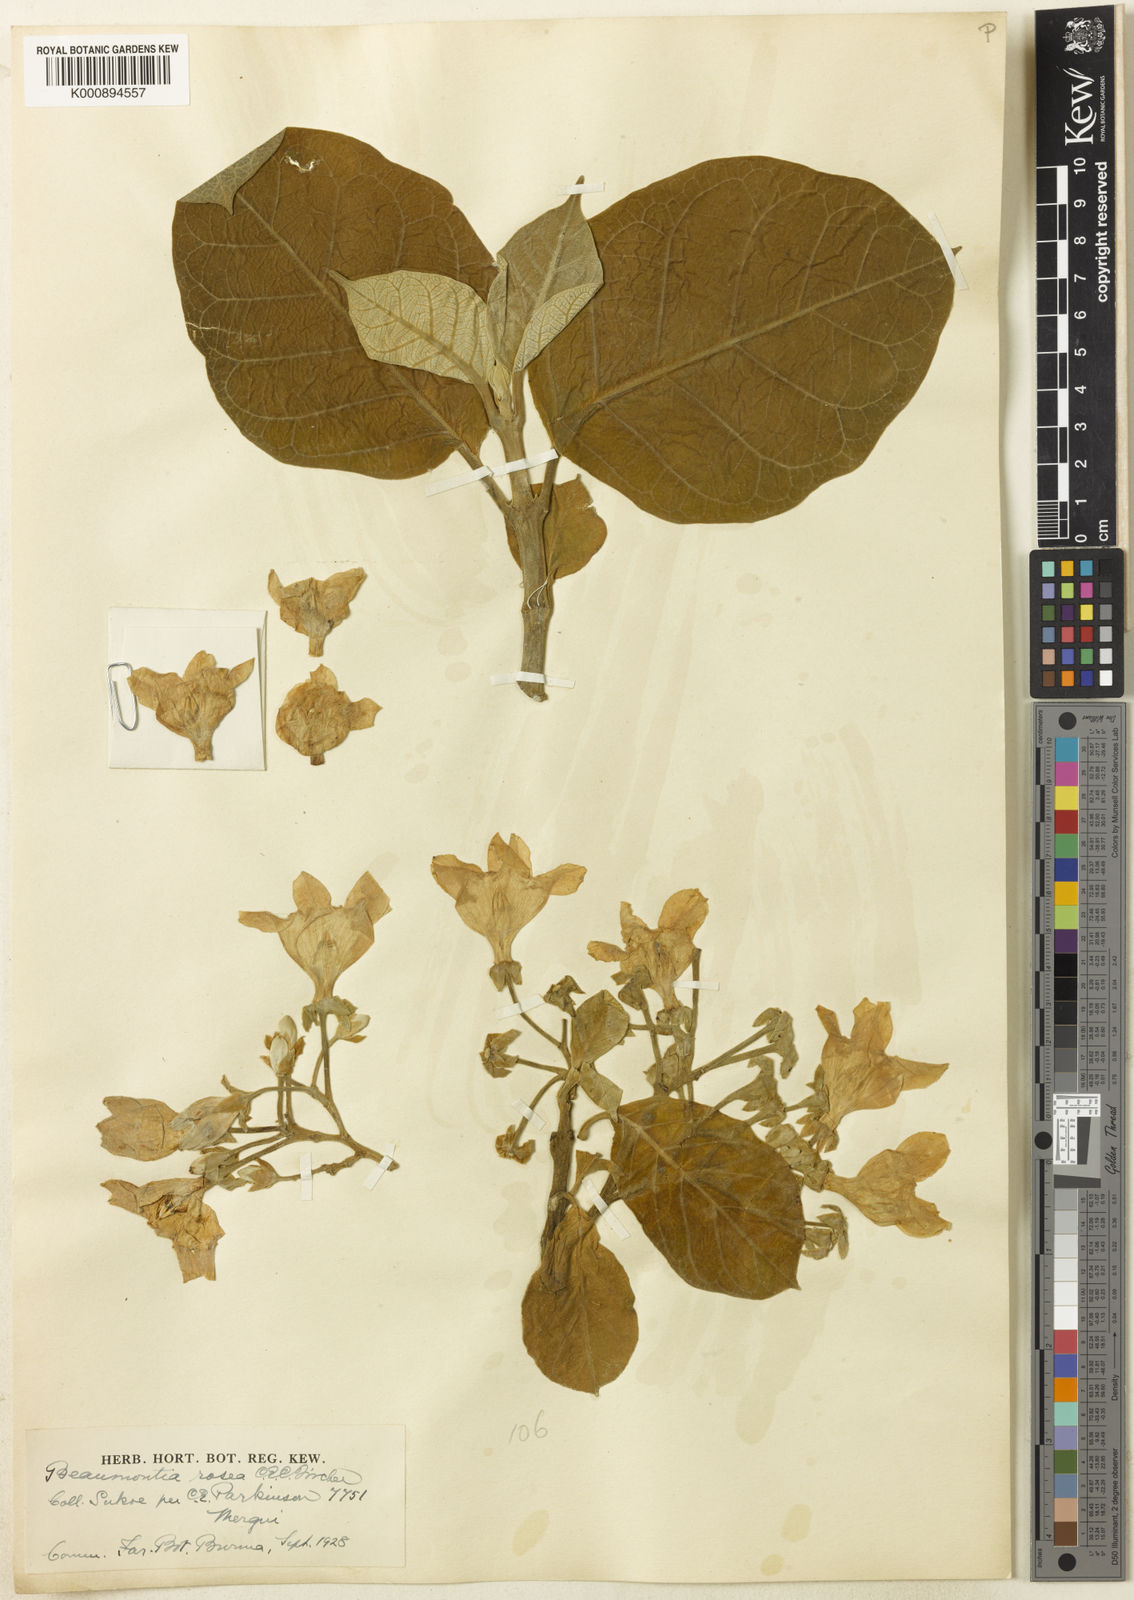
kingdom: Plantae
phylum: Tracheophyta
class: Magnoliopsida
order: Gentianales
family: Apocynaceae
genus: Beaumontia
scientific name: Beaumontia macrantha
